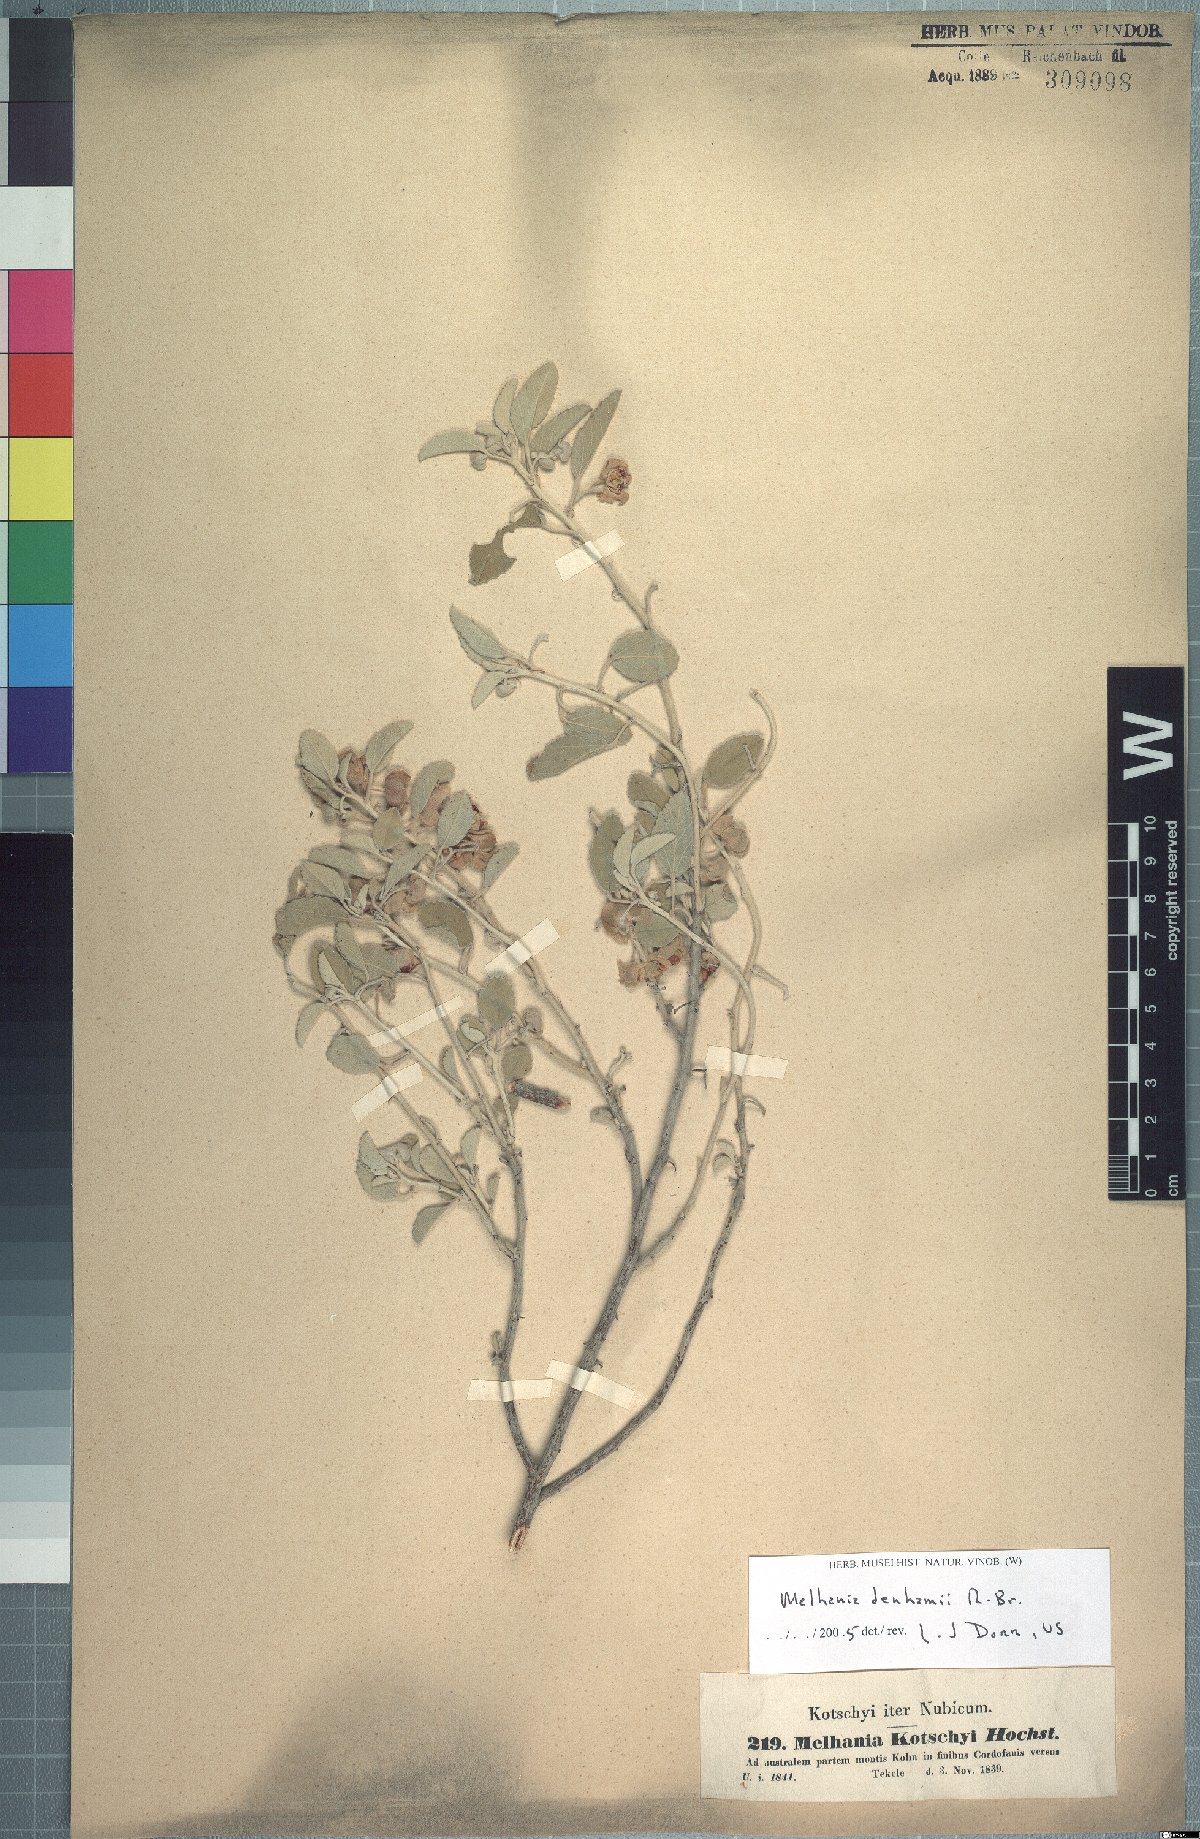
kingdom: Plantae
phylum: Tracheophyta
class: Magnoliopsida
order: Malvales
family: Malvaceae
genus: Melhania
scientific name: Melhania denhamii
